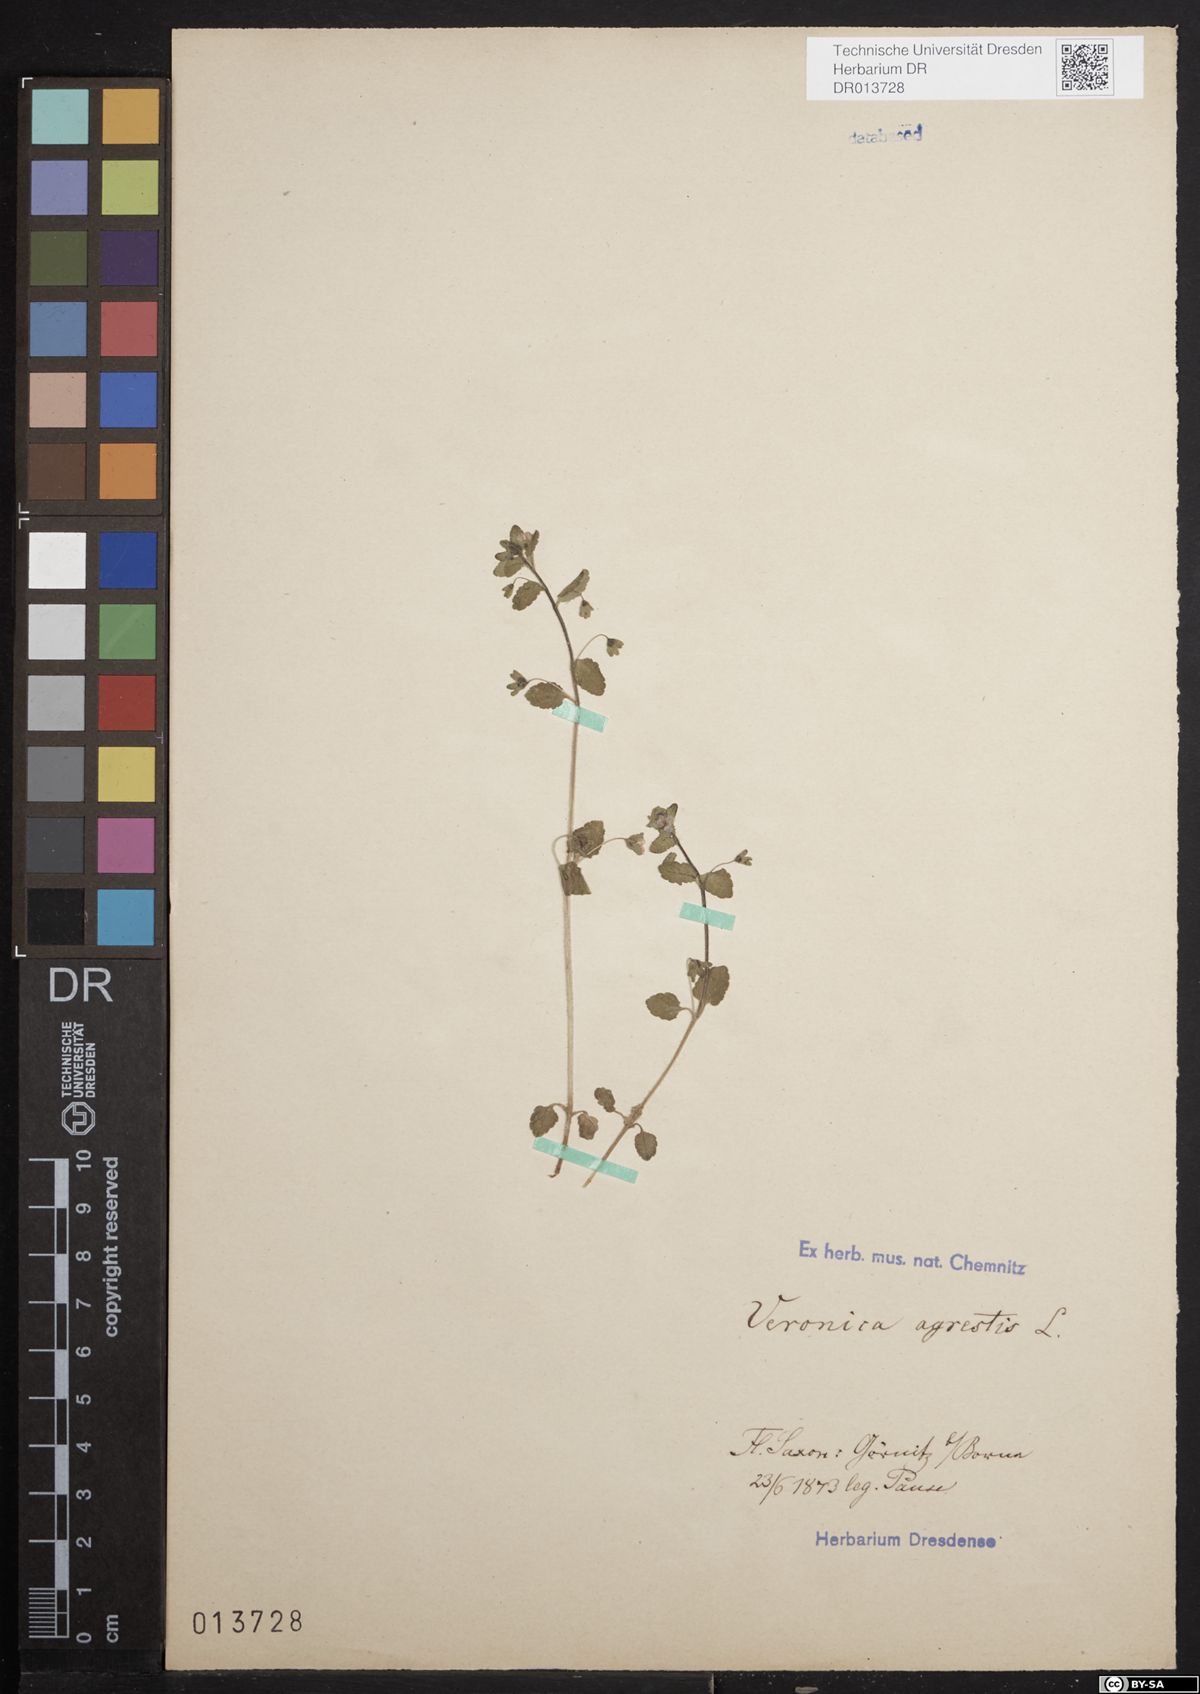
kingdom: Plantae
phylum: Tracheophyta
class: Magnoliopsida
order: Lamiales
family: Plantaginaceae
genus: Veronica
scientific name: Veronica agrestis
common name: Green field-speedwell
